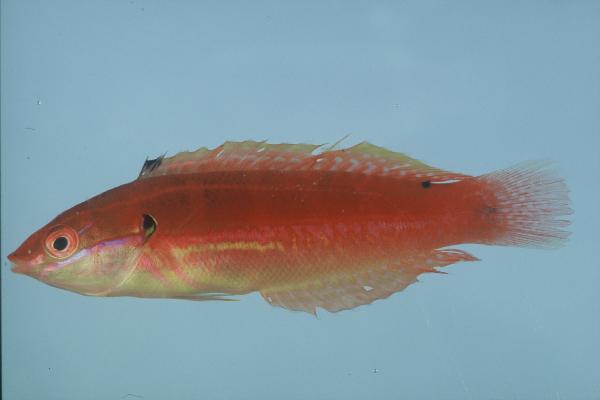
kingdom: Animalia
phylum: Chordata
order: Perciformes
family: Labridae
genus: Coris
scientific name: Coris caudimacula
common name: Spottail coris
